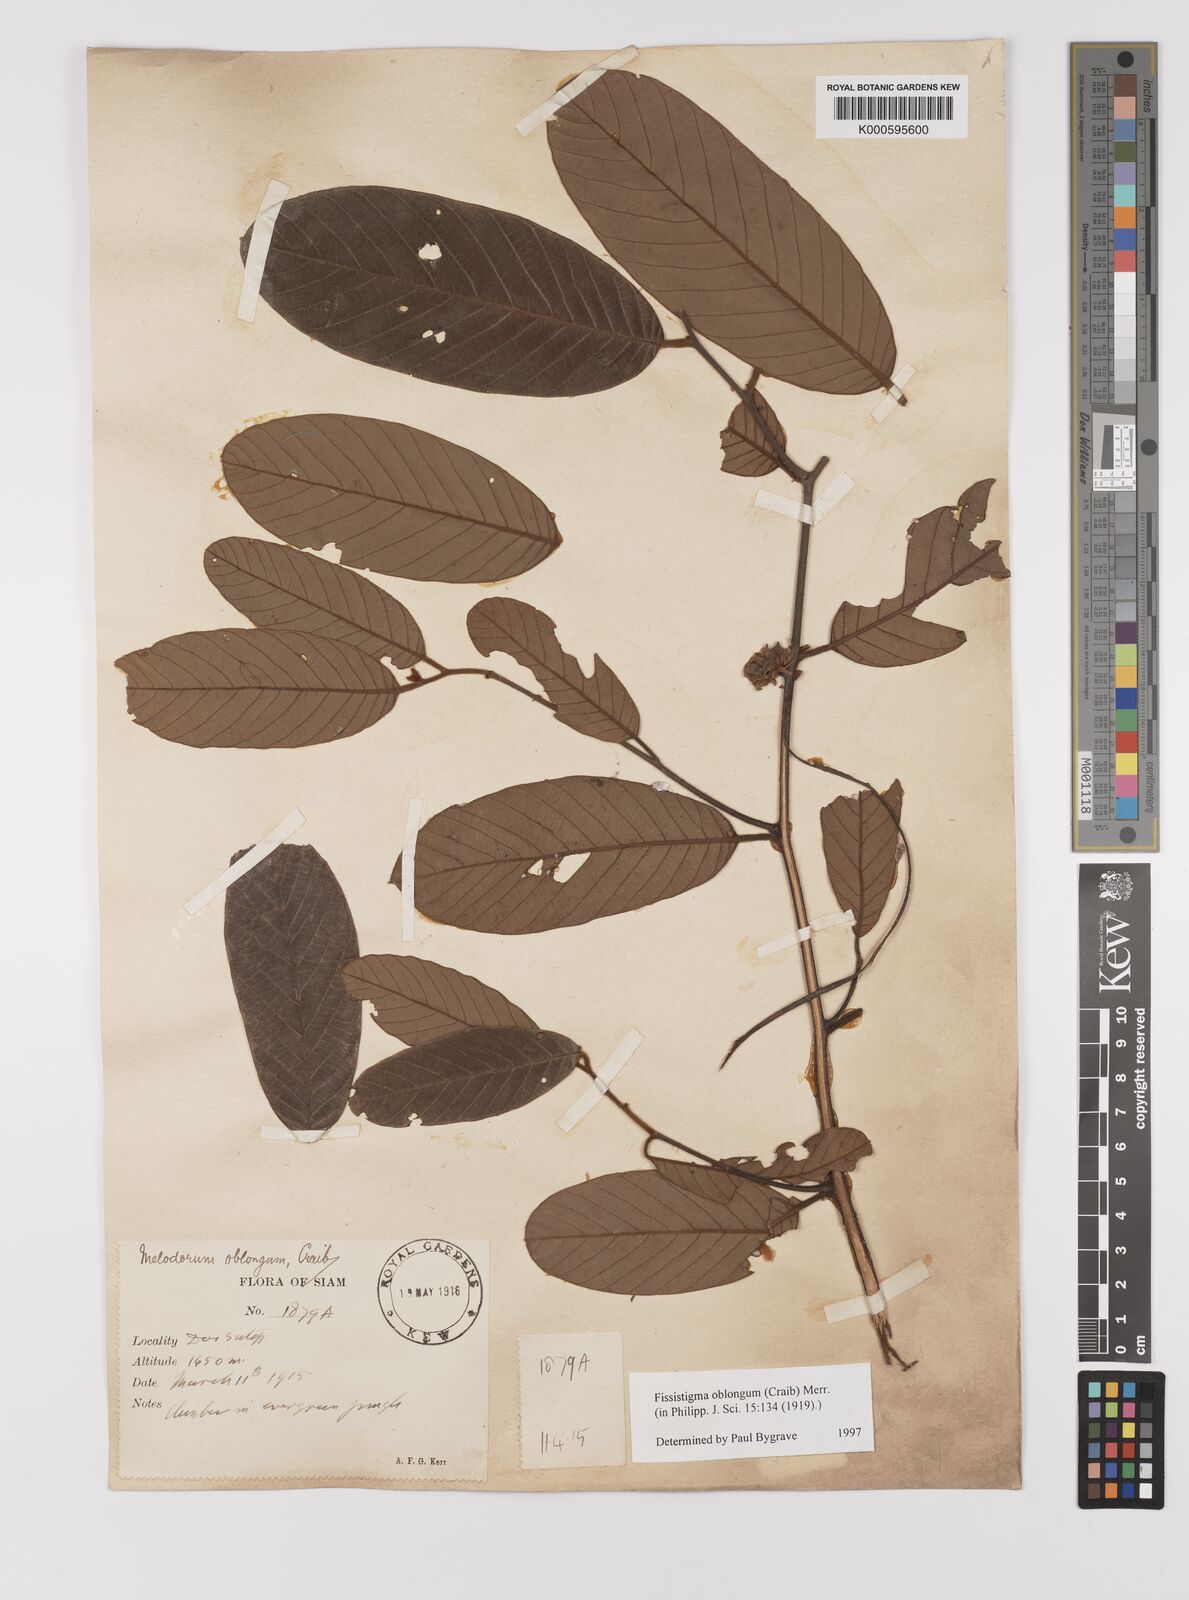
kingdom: Plantae
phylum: Tracheophyta
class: Magnoliopsida
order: Magnoliales
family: Annonaceae
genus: Melodorum
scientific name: Melodorum oblongum
